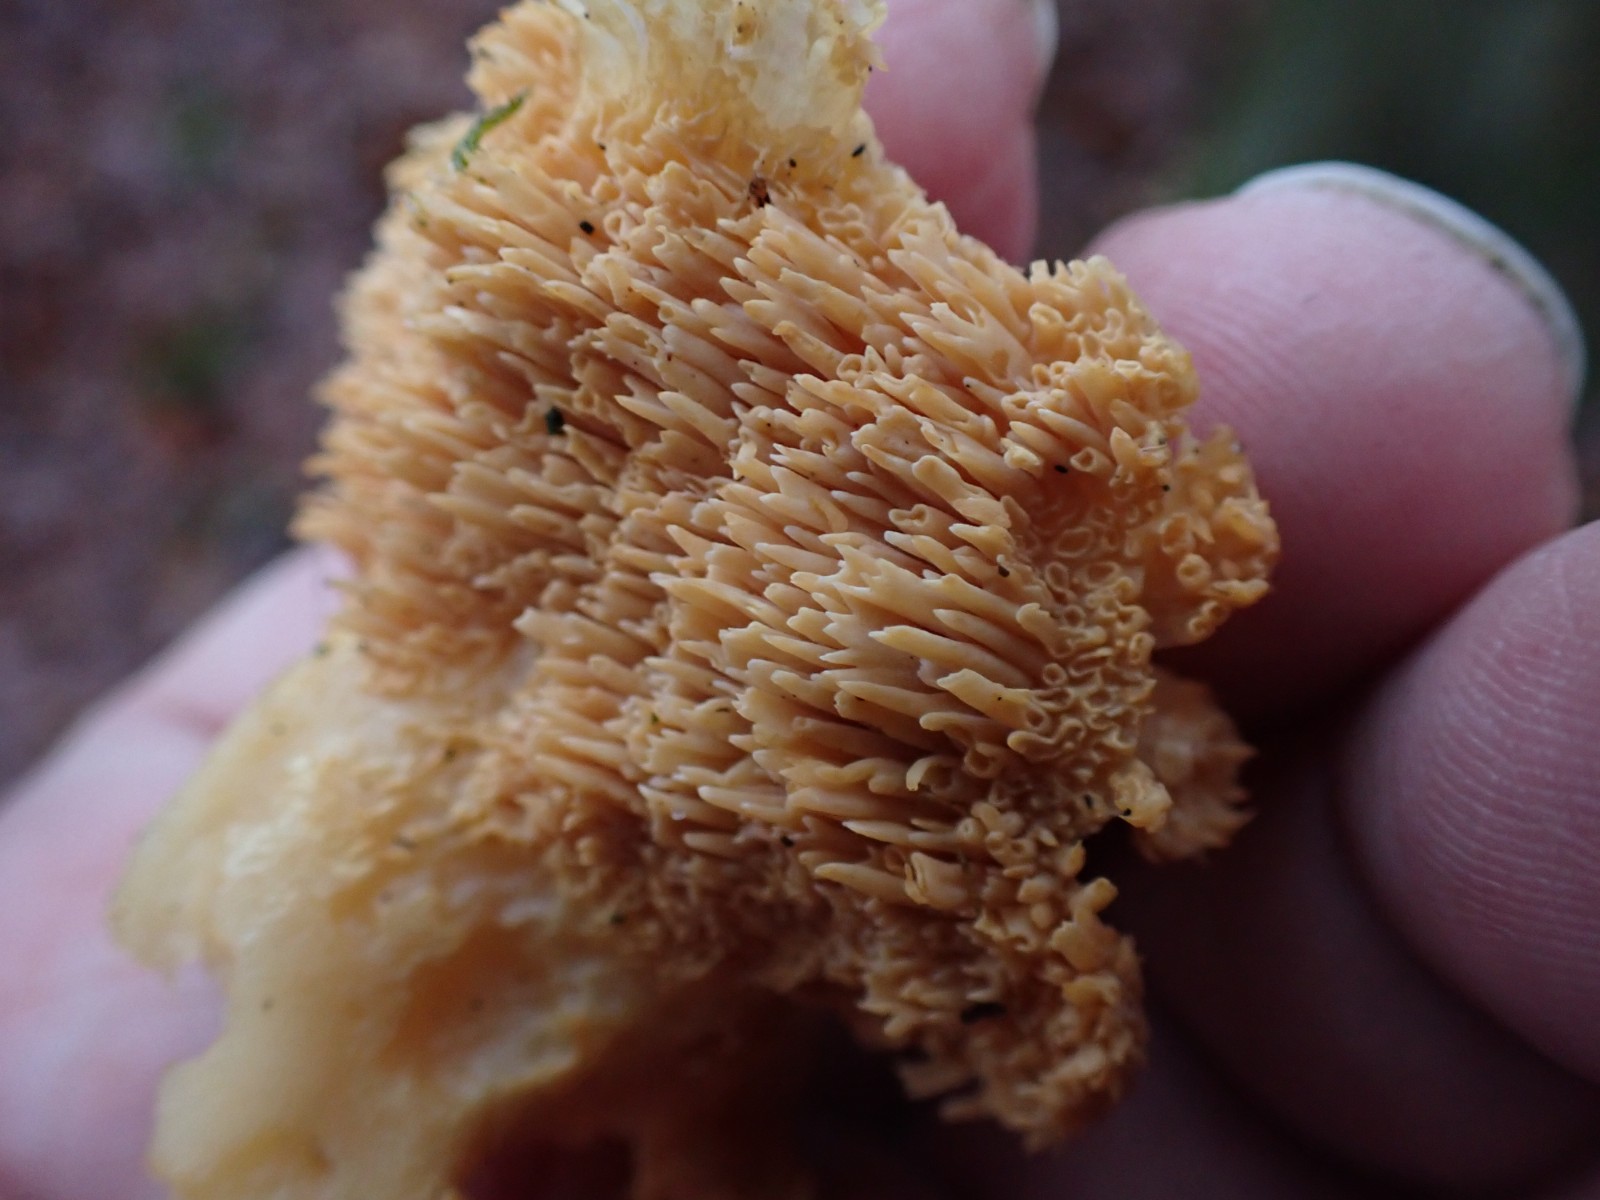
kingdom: Fungi
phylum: Basidiomycota
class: Agaricomycetes
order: Cantharellales
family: Hydnaceae
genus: Hydnum
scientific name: Hydnum
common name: pigsvamp
